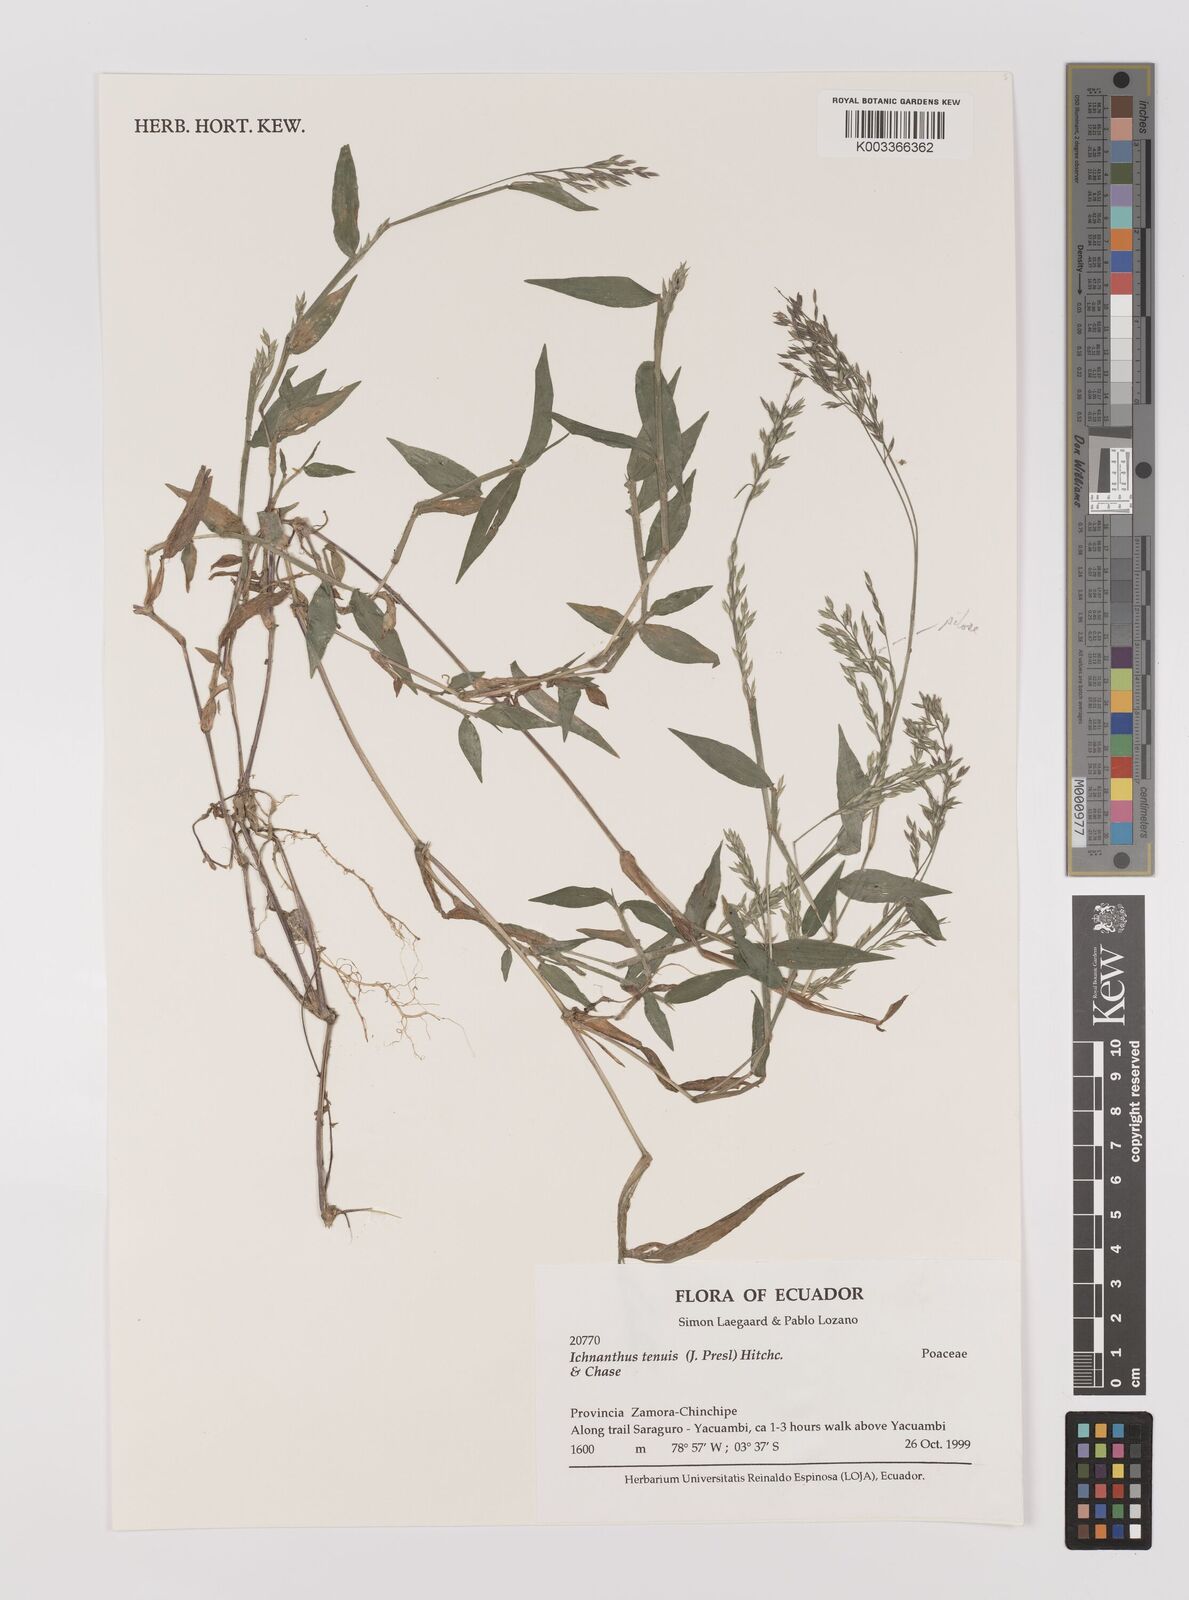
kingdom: Plantae
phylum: Tracheophyta
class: Liliopsida
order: Poales
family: Poaceae
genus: Ichnanthus
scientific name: Ichnanthus tenuis
